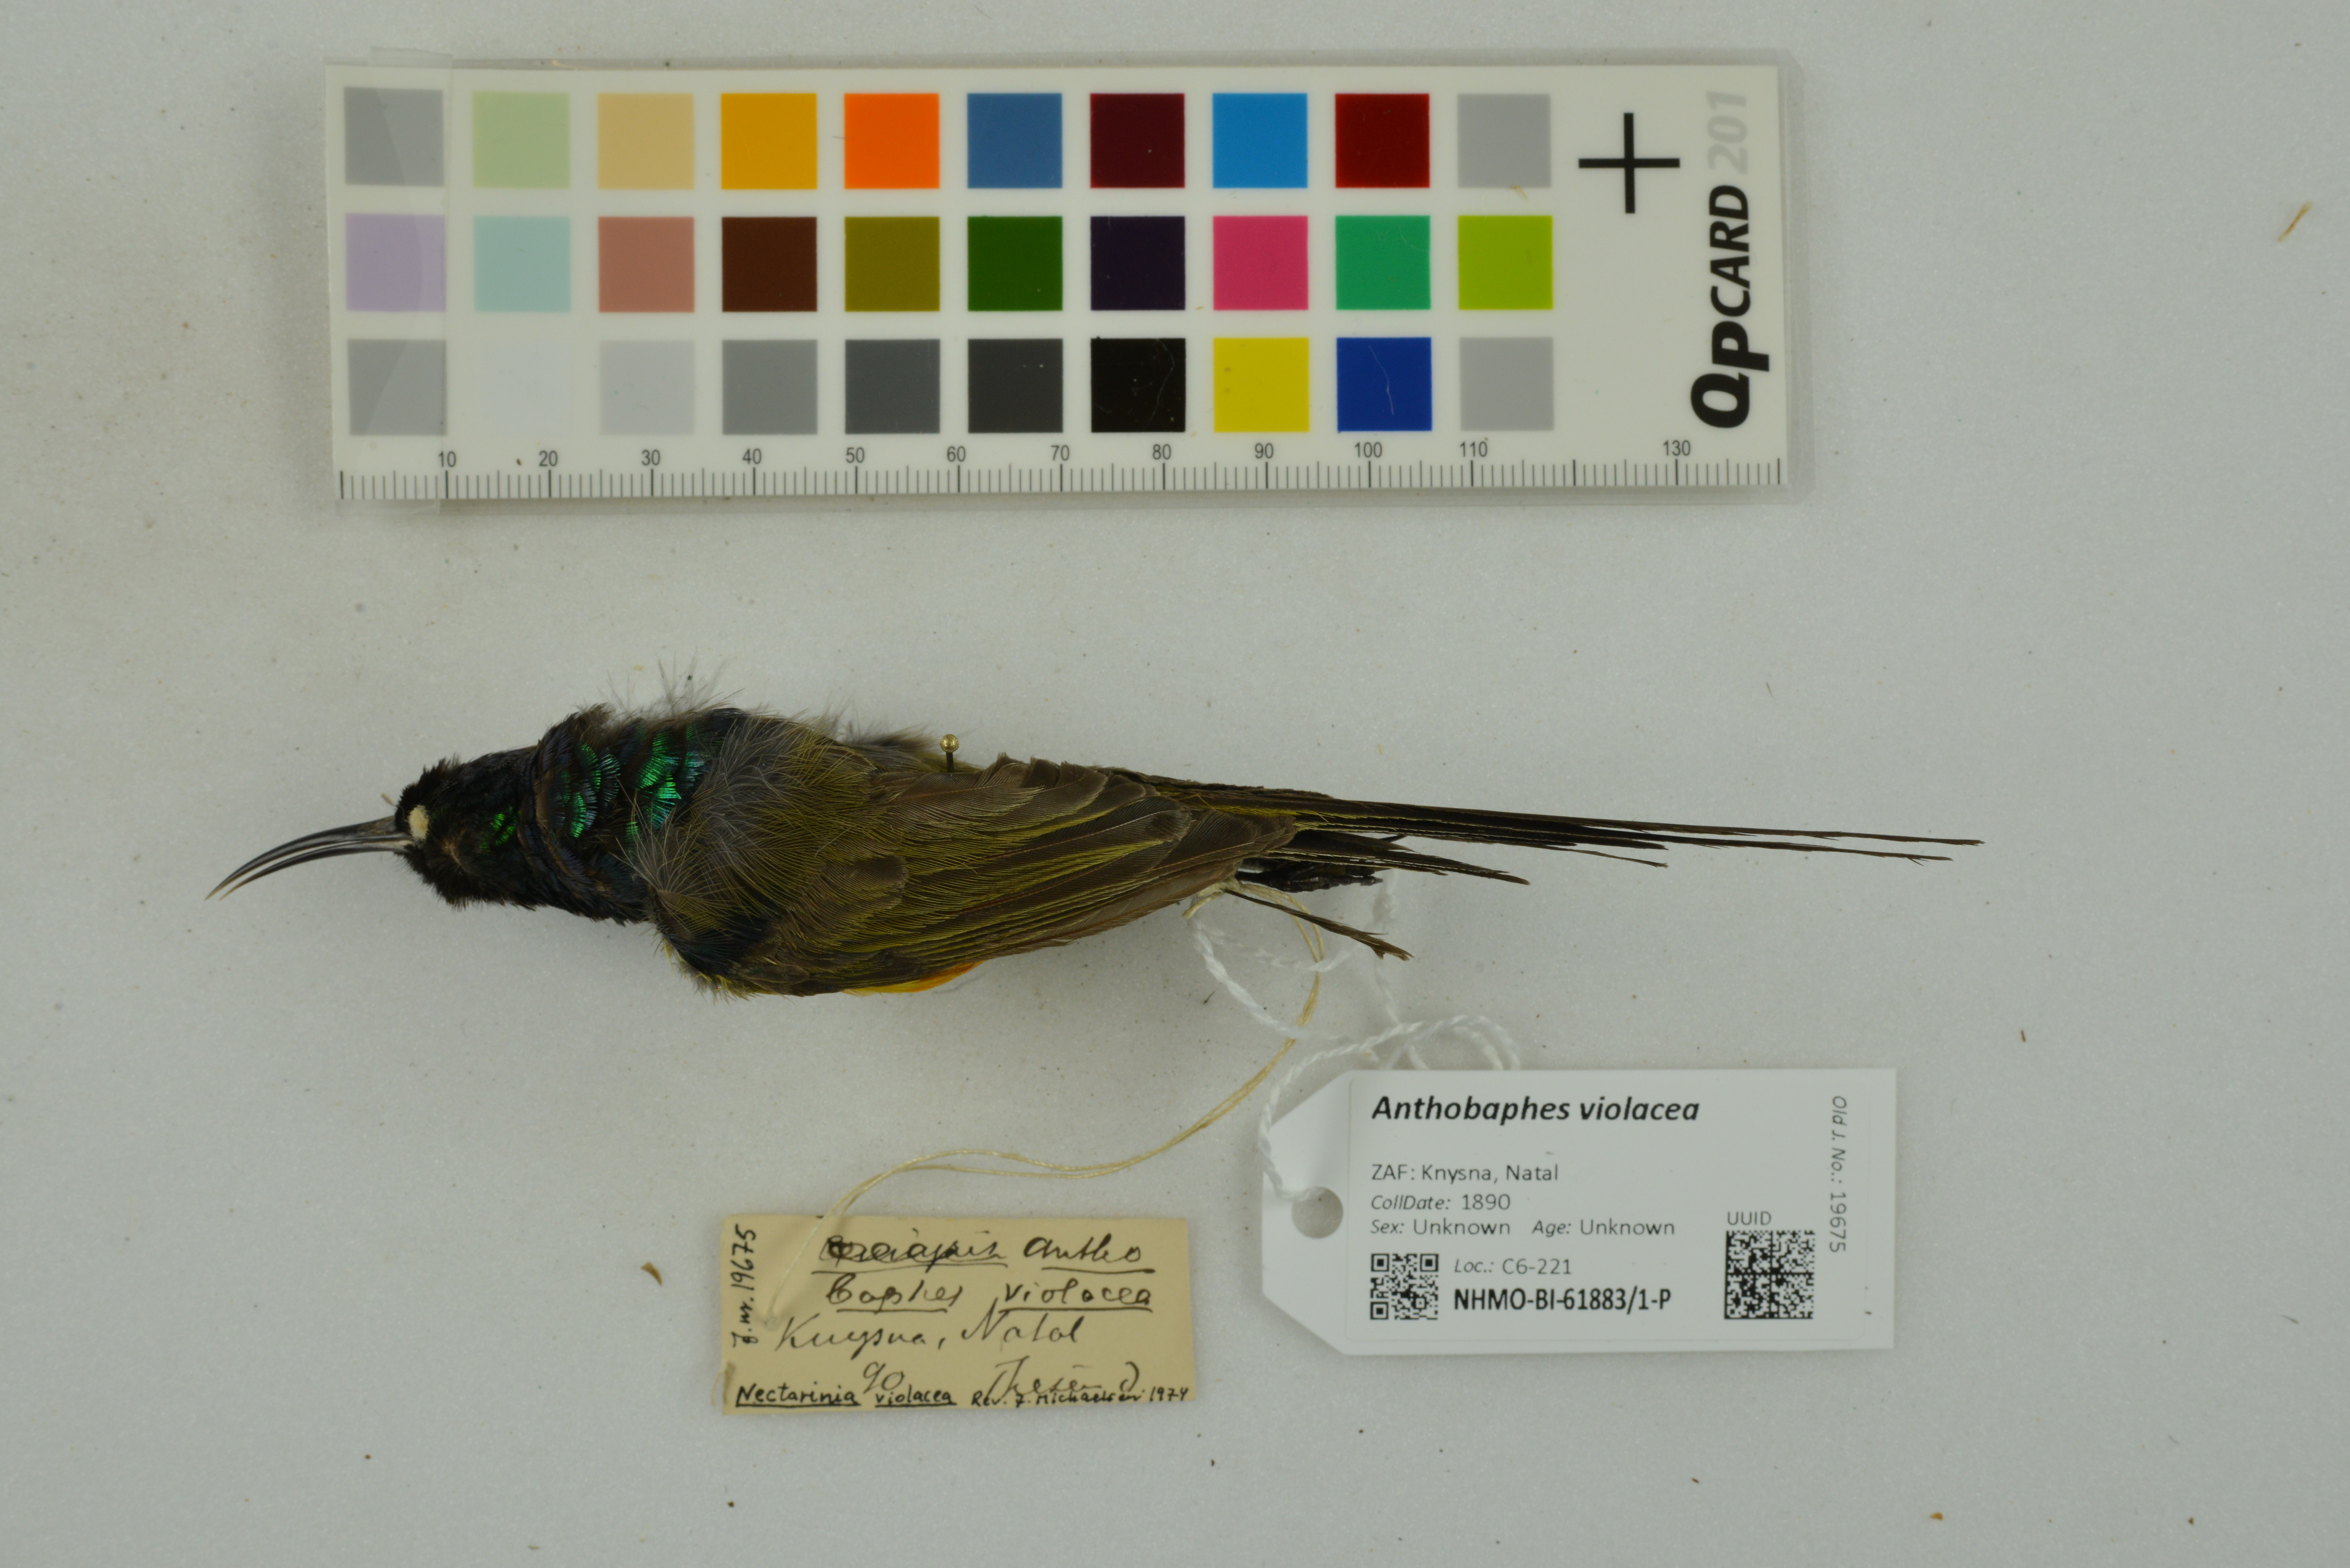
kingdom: Animalia
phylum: Chordata
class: Aves
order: Passeriformes
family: Nectariniidae
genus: Anthobaphes
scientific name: Anthobaphes violacea
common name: Orange-breasted sunbird
